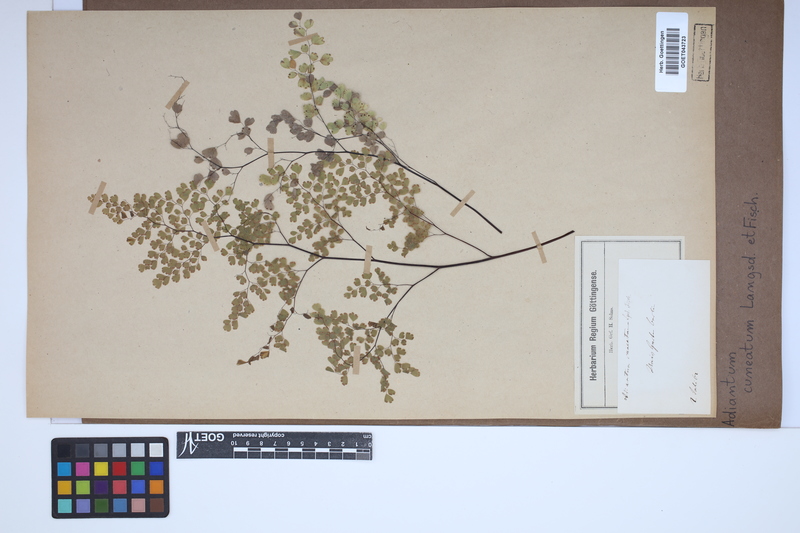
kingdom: Plantae
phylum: Tracheophyta
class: Polypodiopsida
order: Polypodiales
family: Pteridaceae
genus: Adiantum
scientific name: Adiantum raddianum
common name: Delta maidenhair fern
